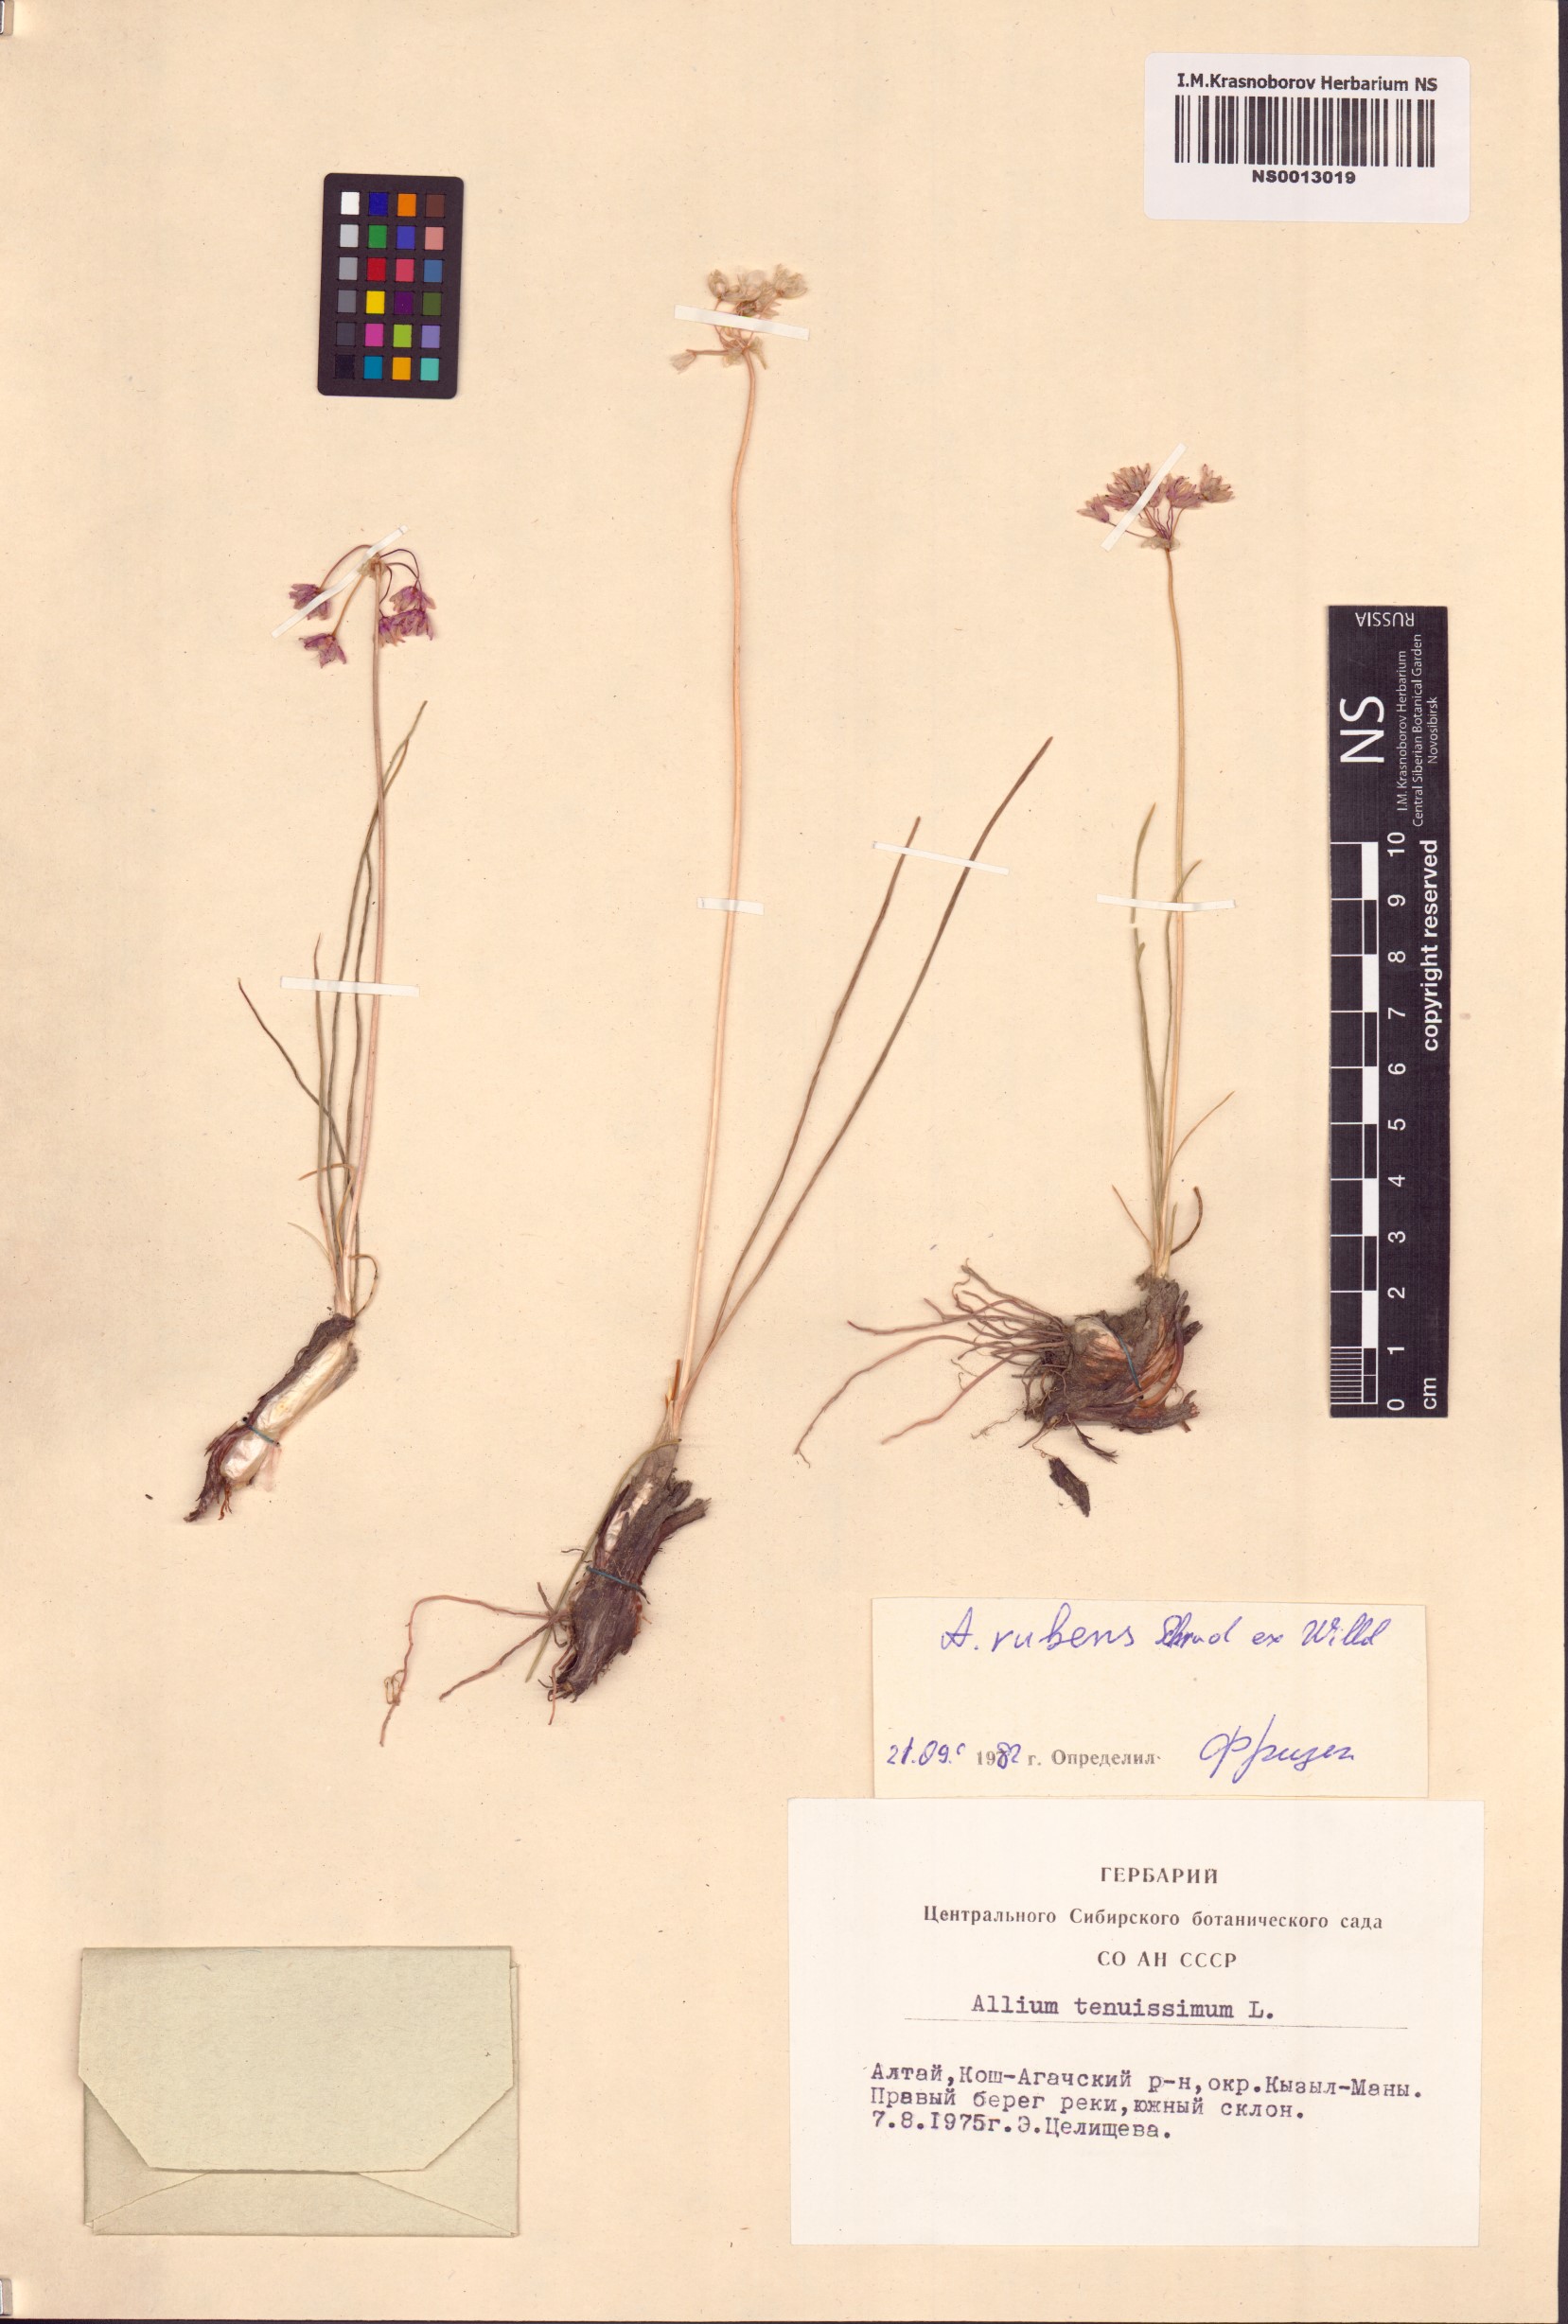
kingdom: Plantae
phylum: Tracheophyta
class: Liliopsida
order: Asparagales
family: Amaryllidaceae
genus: Allium
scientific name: Allium rubens
